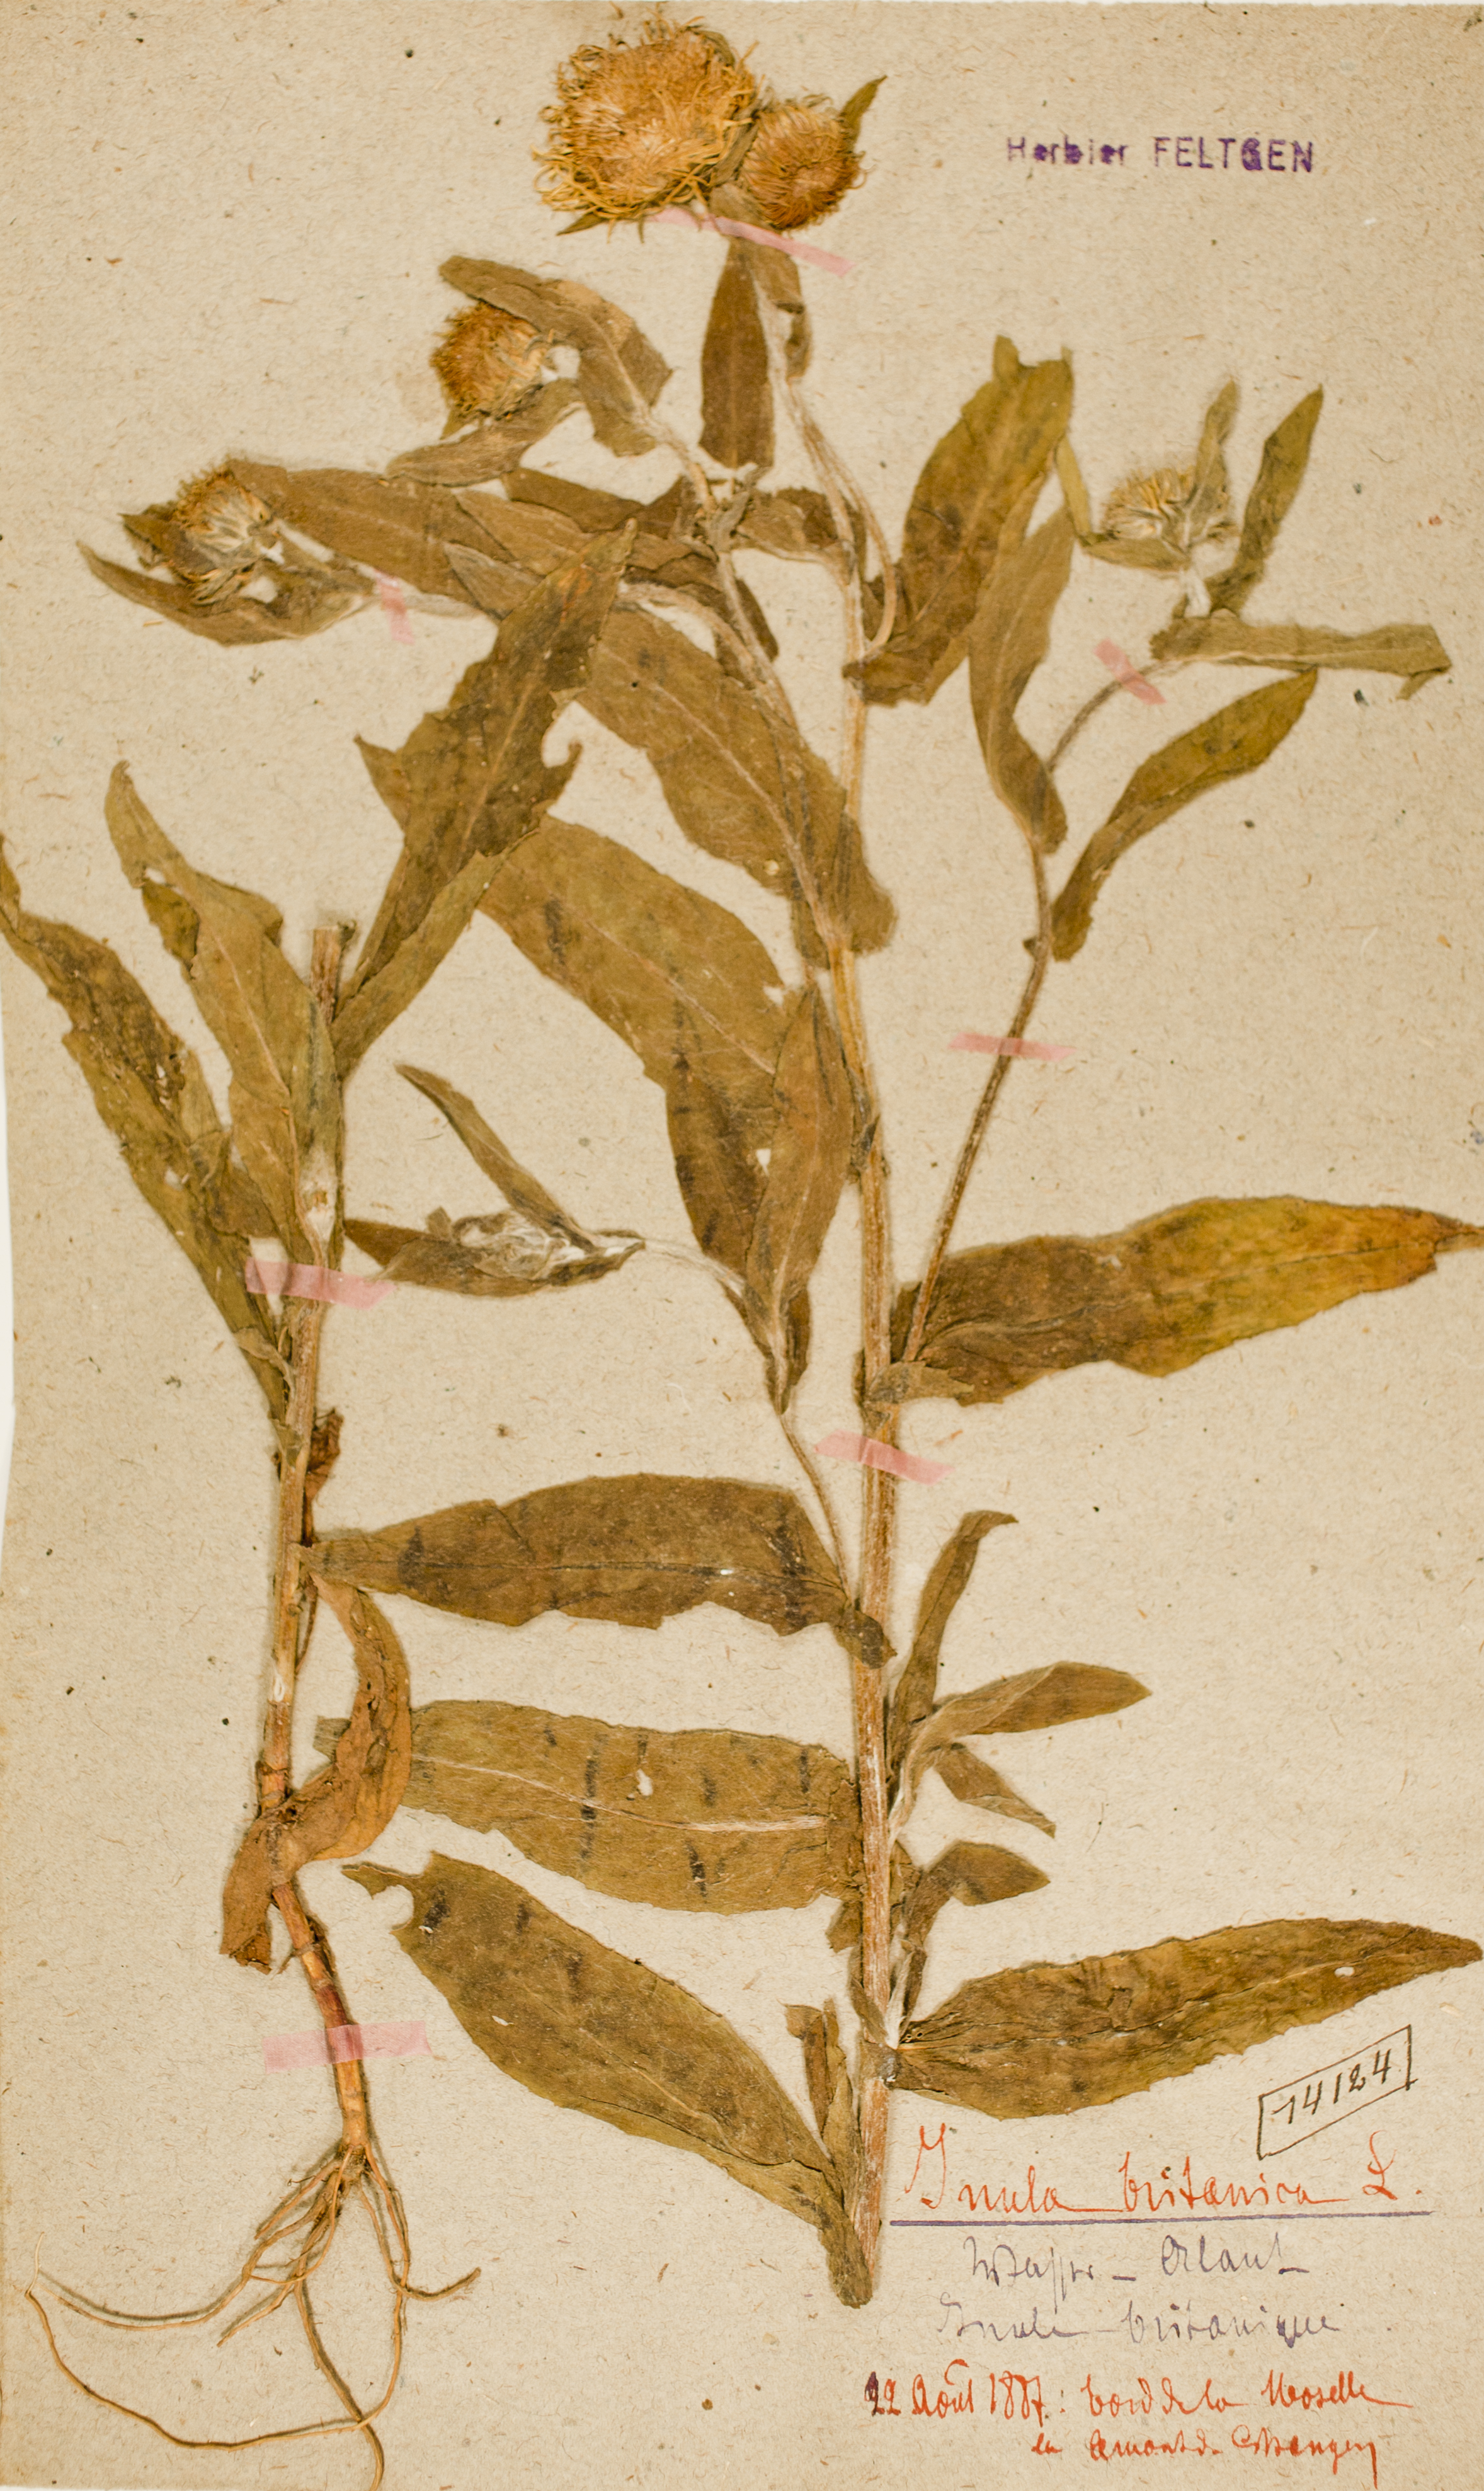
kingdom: Plantae
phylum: Tracheophyta
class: Magnoliopsida
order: Asterales
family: Asteraceae
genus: Pentanema
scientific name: Pentanema britannicum
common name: British elecampane
